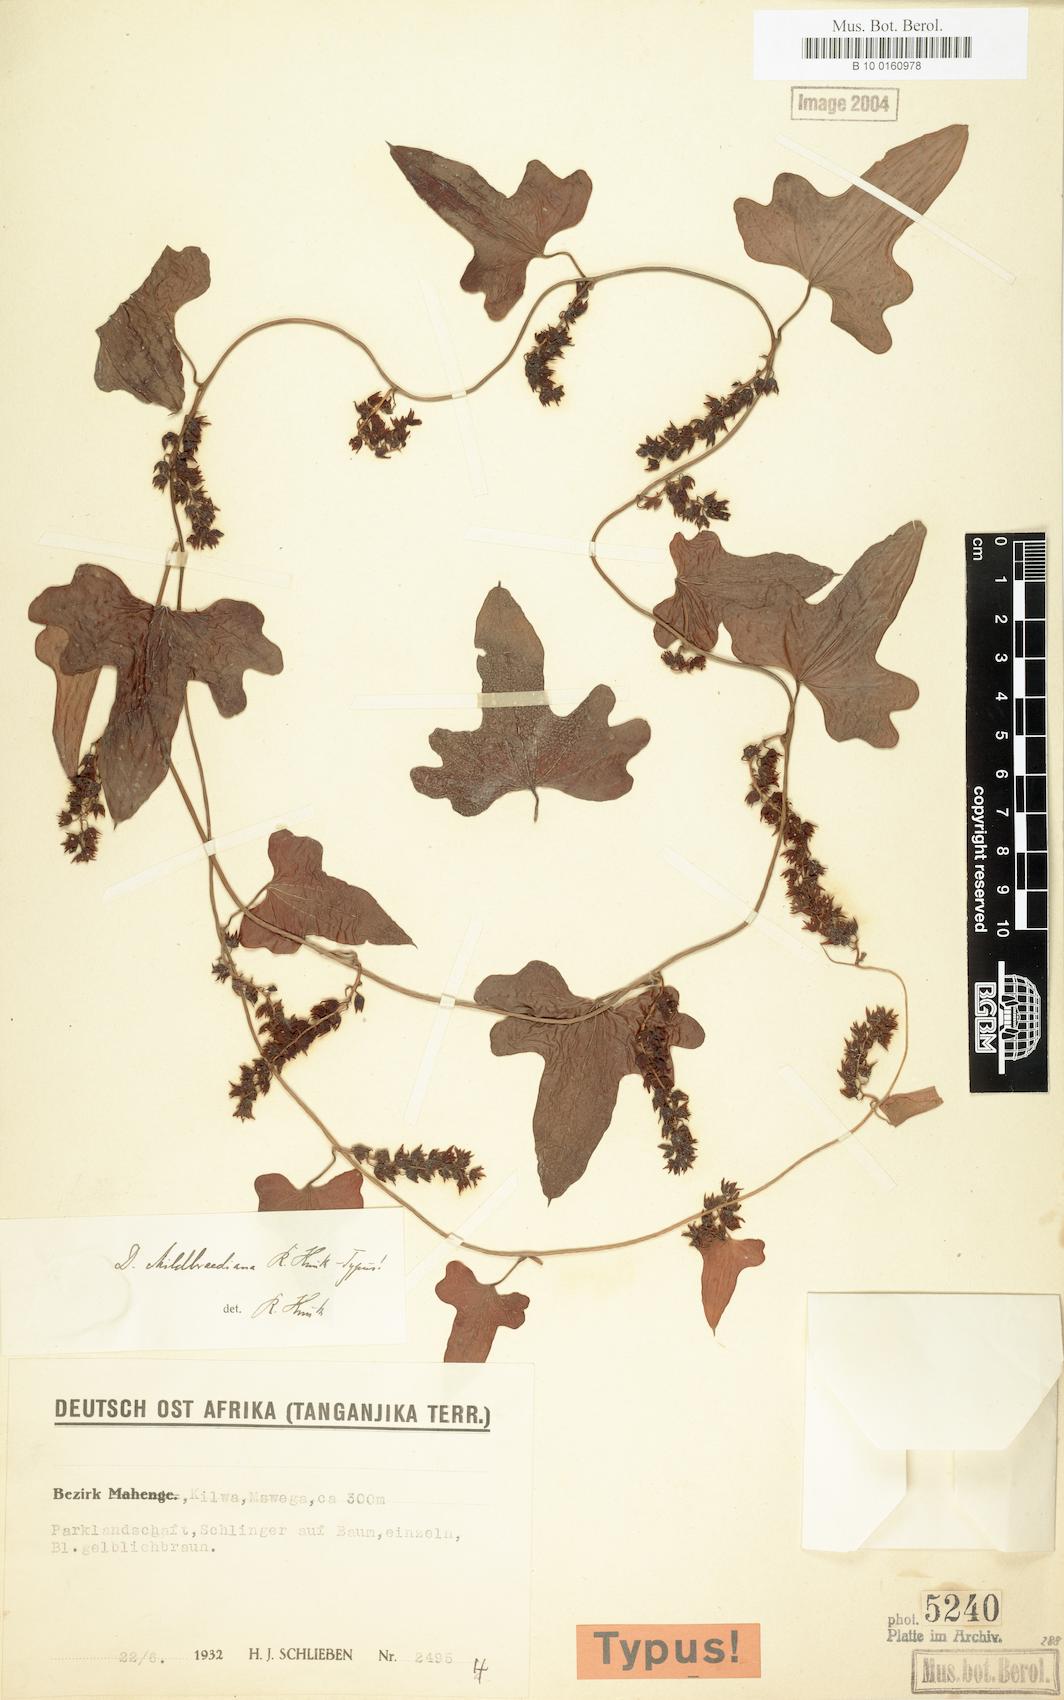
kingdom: Plantae
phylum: Tracheophyta
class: Liliopsida
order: Dioscoreales
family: Dioscoreaceae
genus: Dioscorea
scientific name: Dioscorea buchananii
